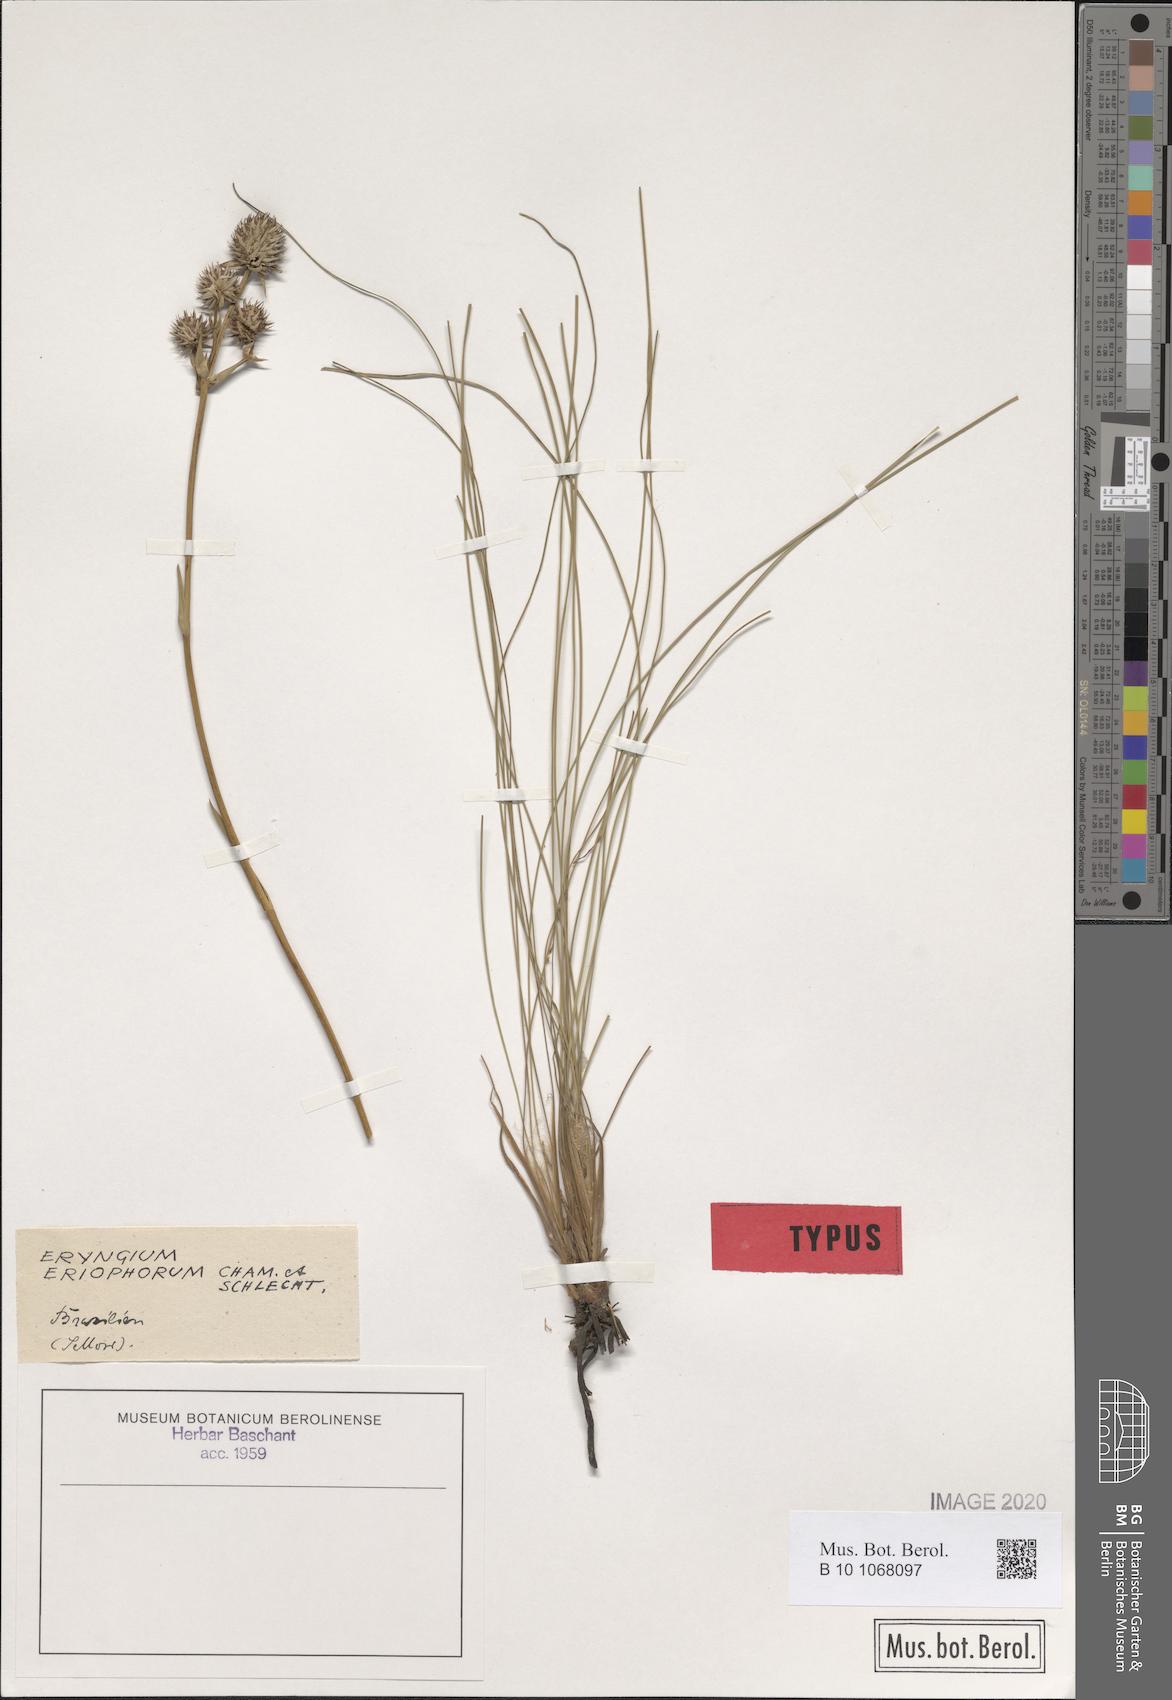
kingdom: Plantae
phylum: Tracheophyta
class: Magnoliopsida
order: Apiales
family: Apiaceae
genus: Eryngium
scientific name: Eryngium eriophorum
